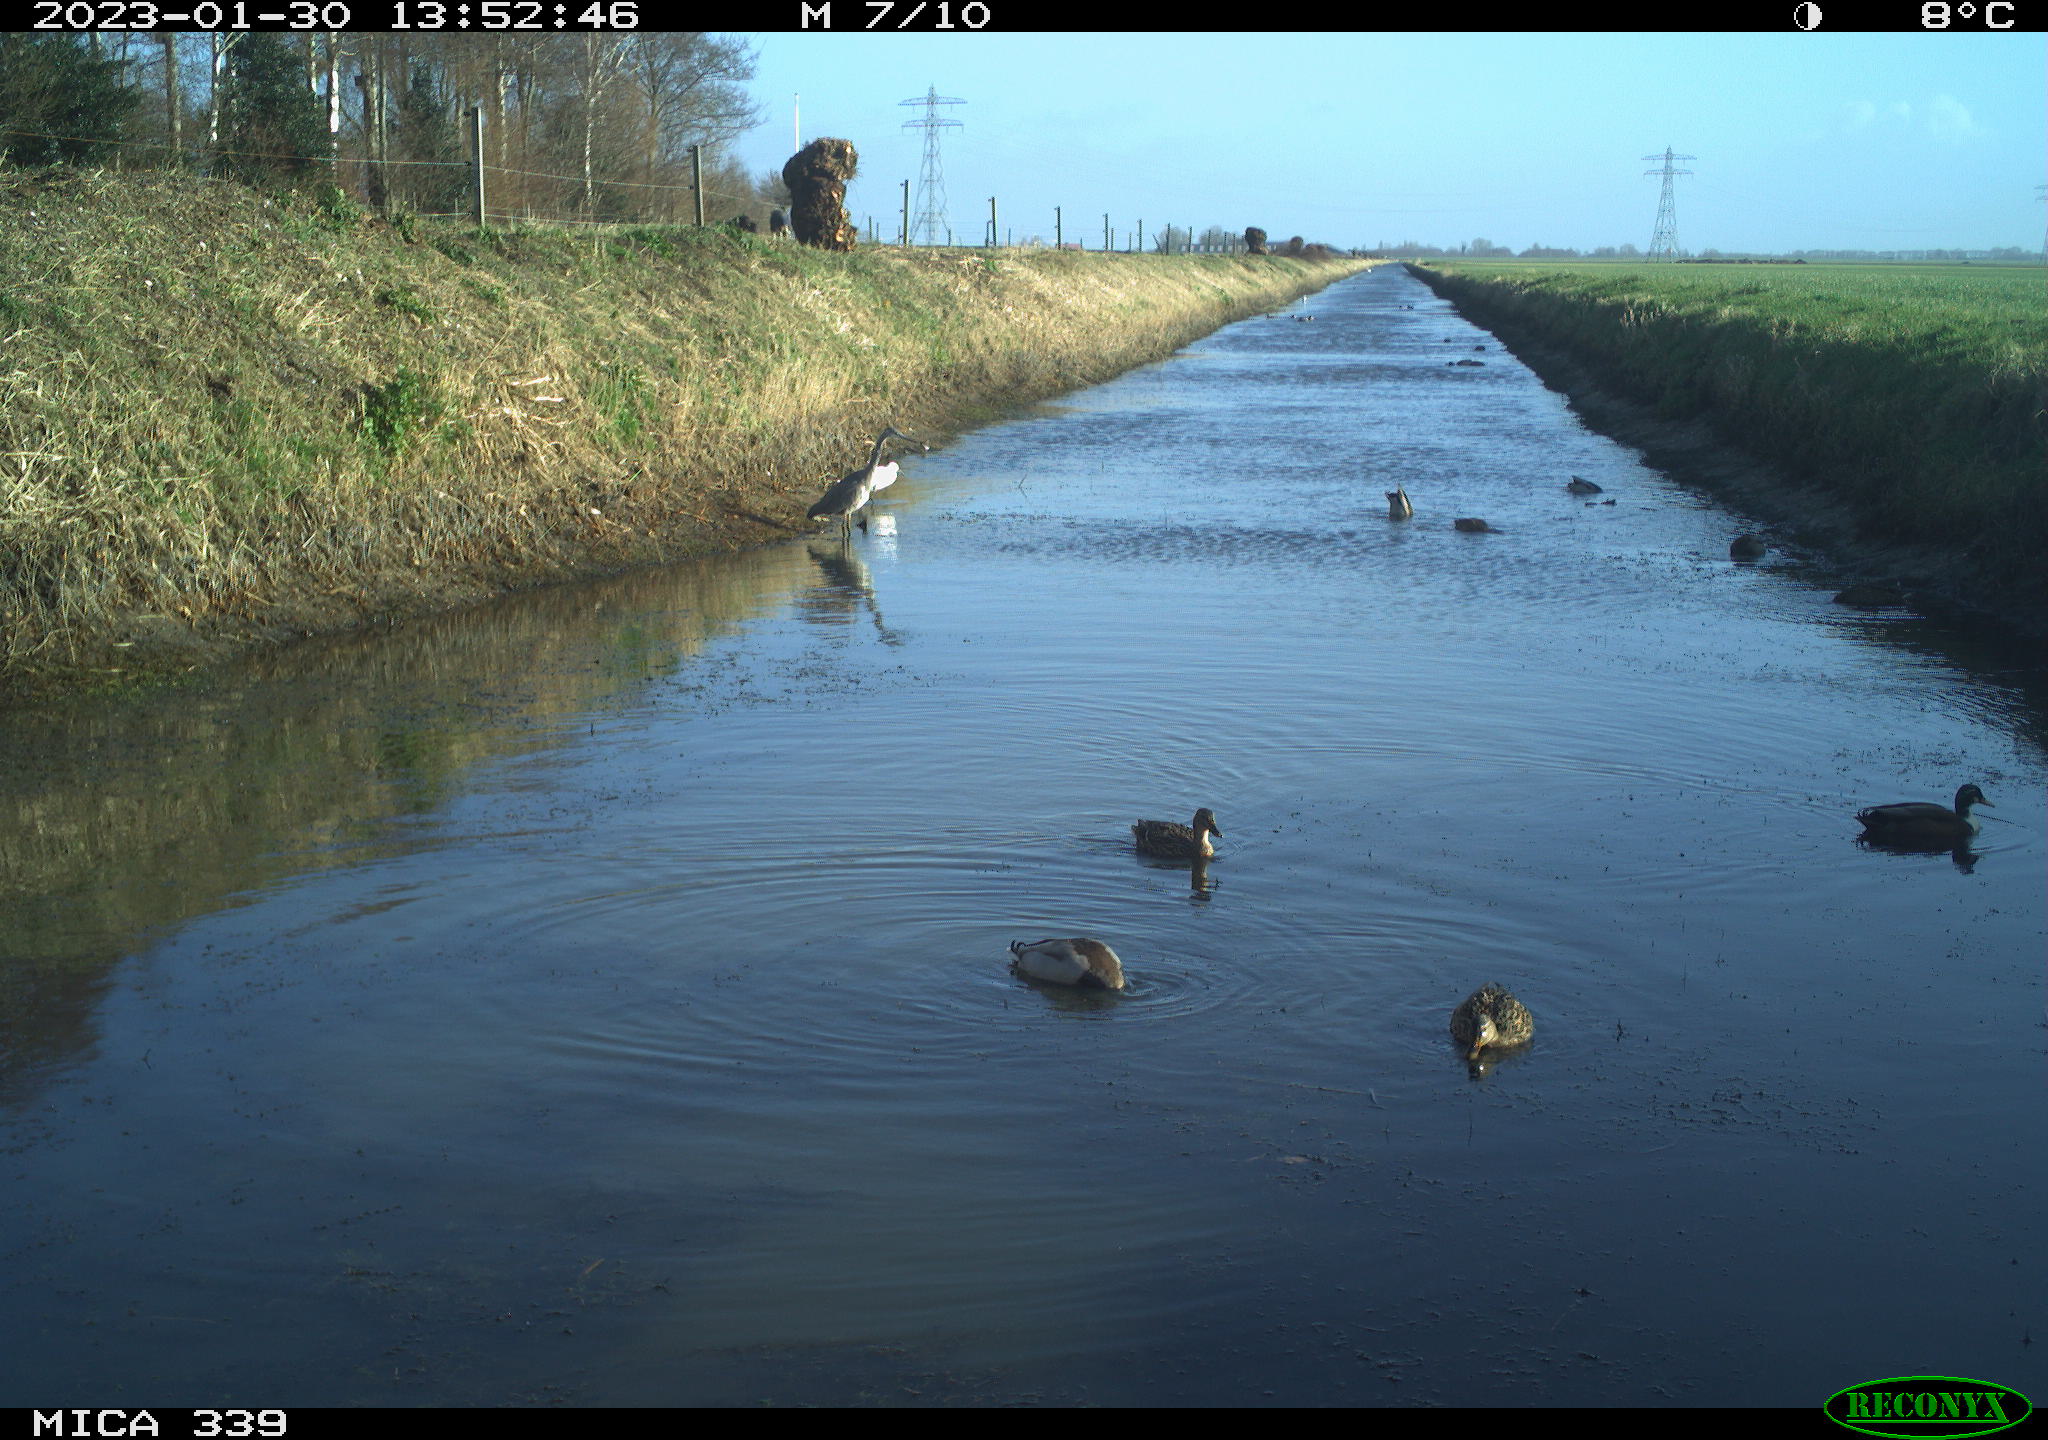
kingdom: Animalia
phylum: Chordata
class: Aves
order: Pelecaniformes
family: Ardeidae
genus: Ardea
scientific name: Ardea alba
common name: Great egret
